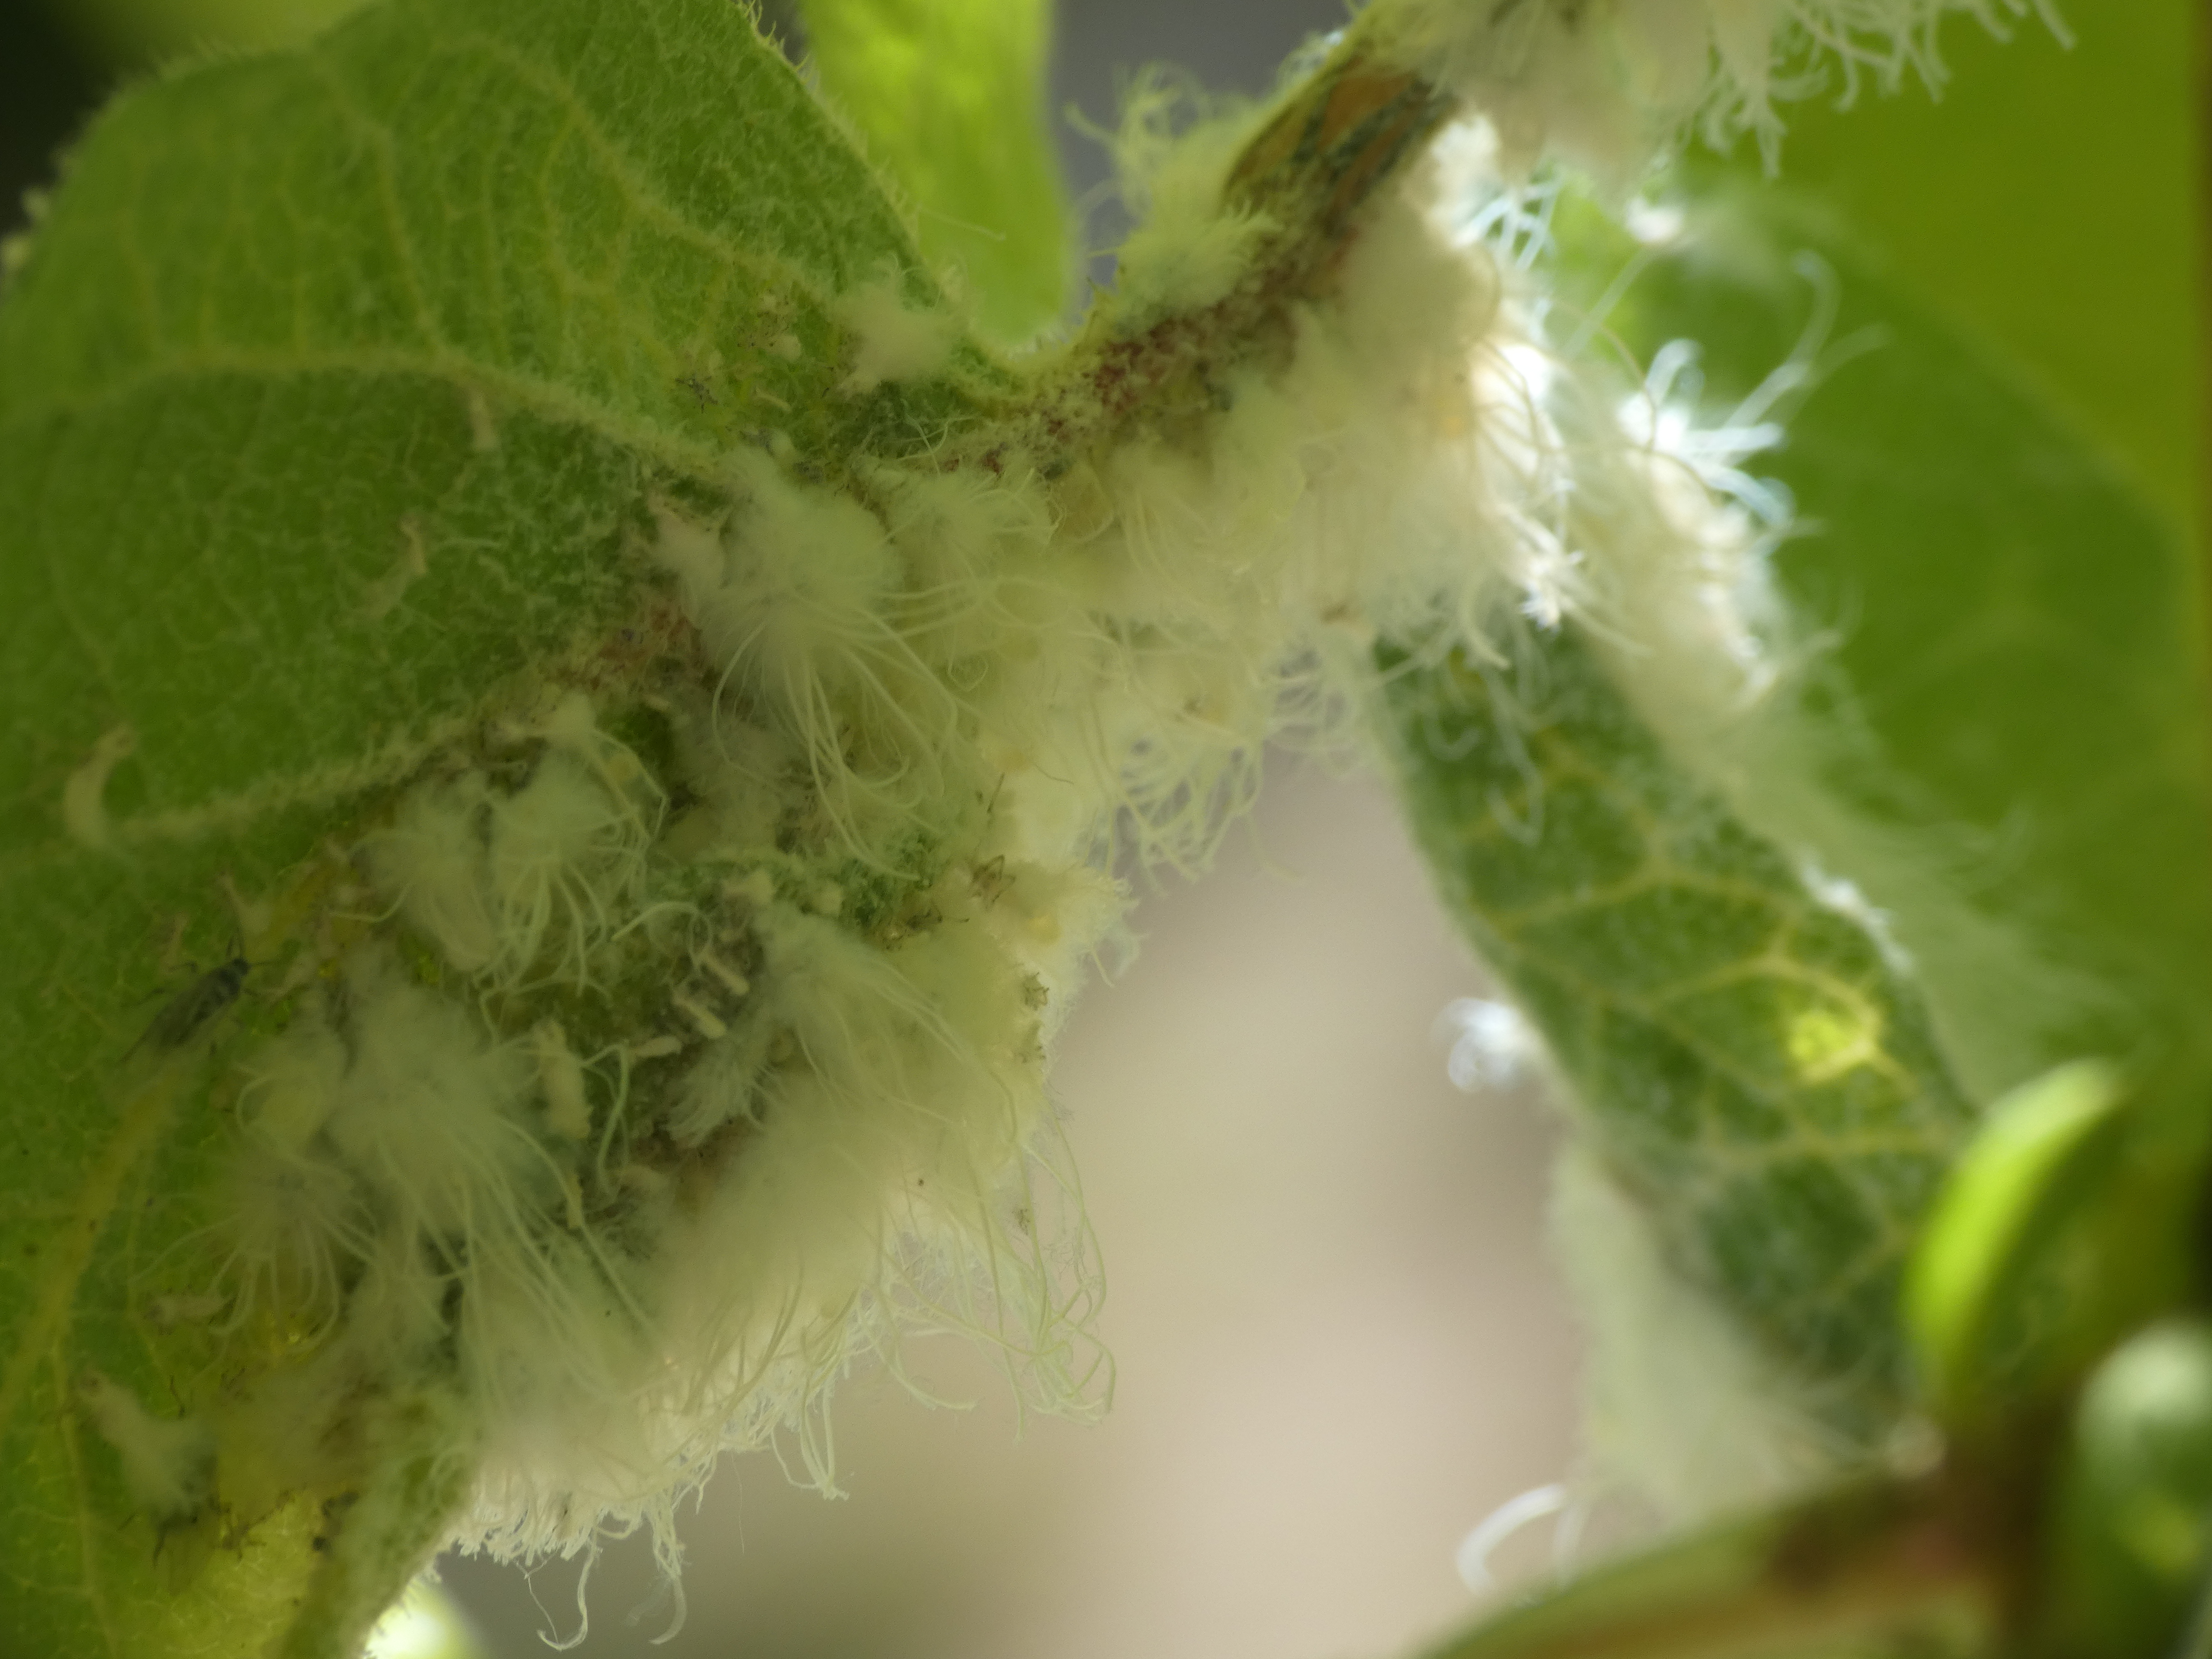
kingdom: Animalia
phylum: Arthropoda
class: Insecta
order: Hemiptera
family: Aphididae
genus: Prociphilus
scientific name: Prociphilus xylostei
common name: Ulden gedebladbladlus
